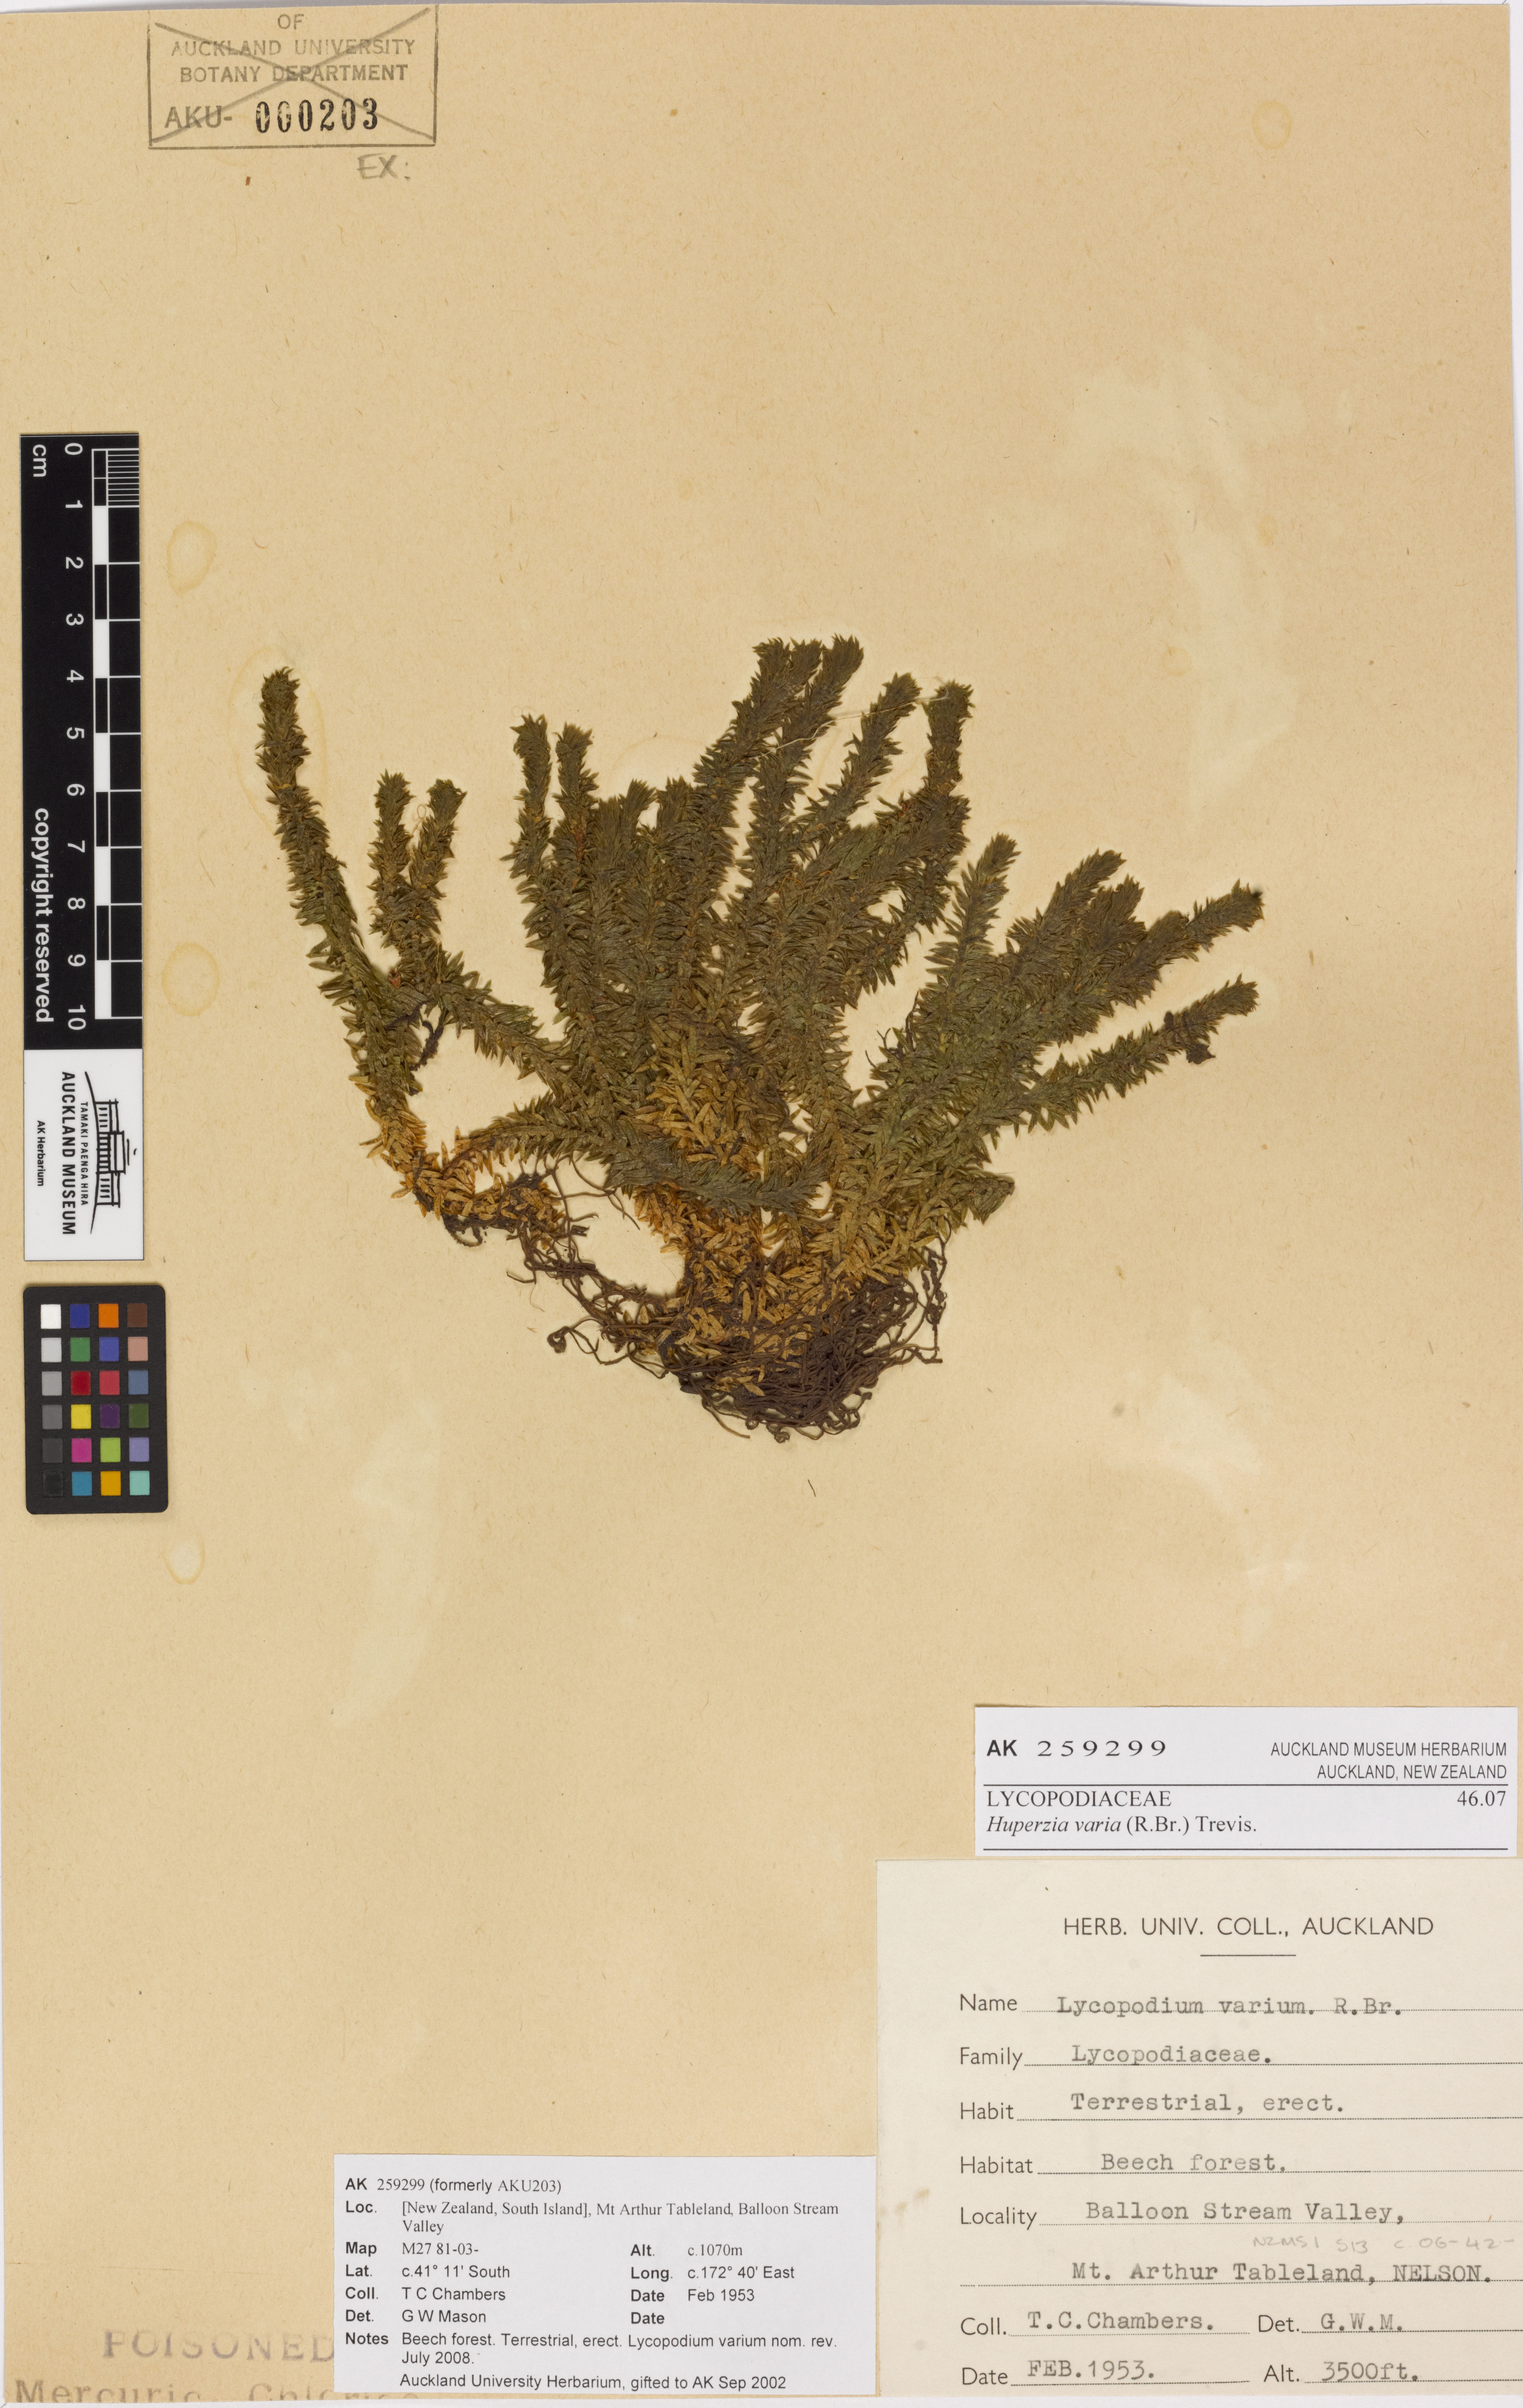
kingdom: Plantae
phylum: Tracheophyta
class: Lycopodiopsida
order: Lycopodiales
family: Lycopodiaceae
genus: Huperzia
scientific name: Huperzia australiana
